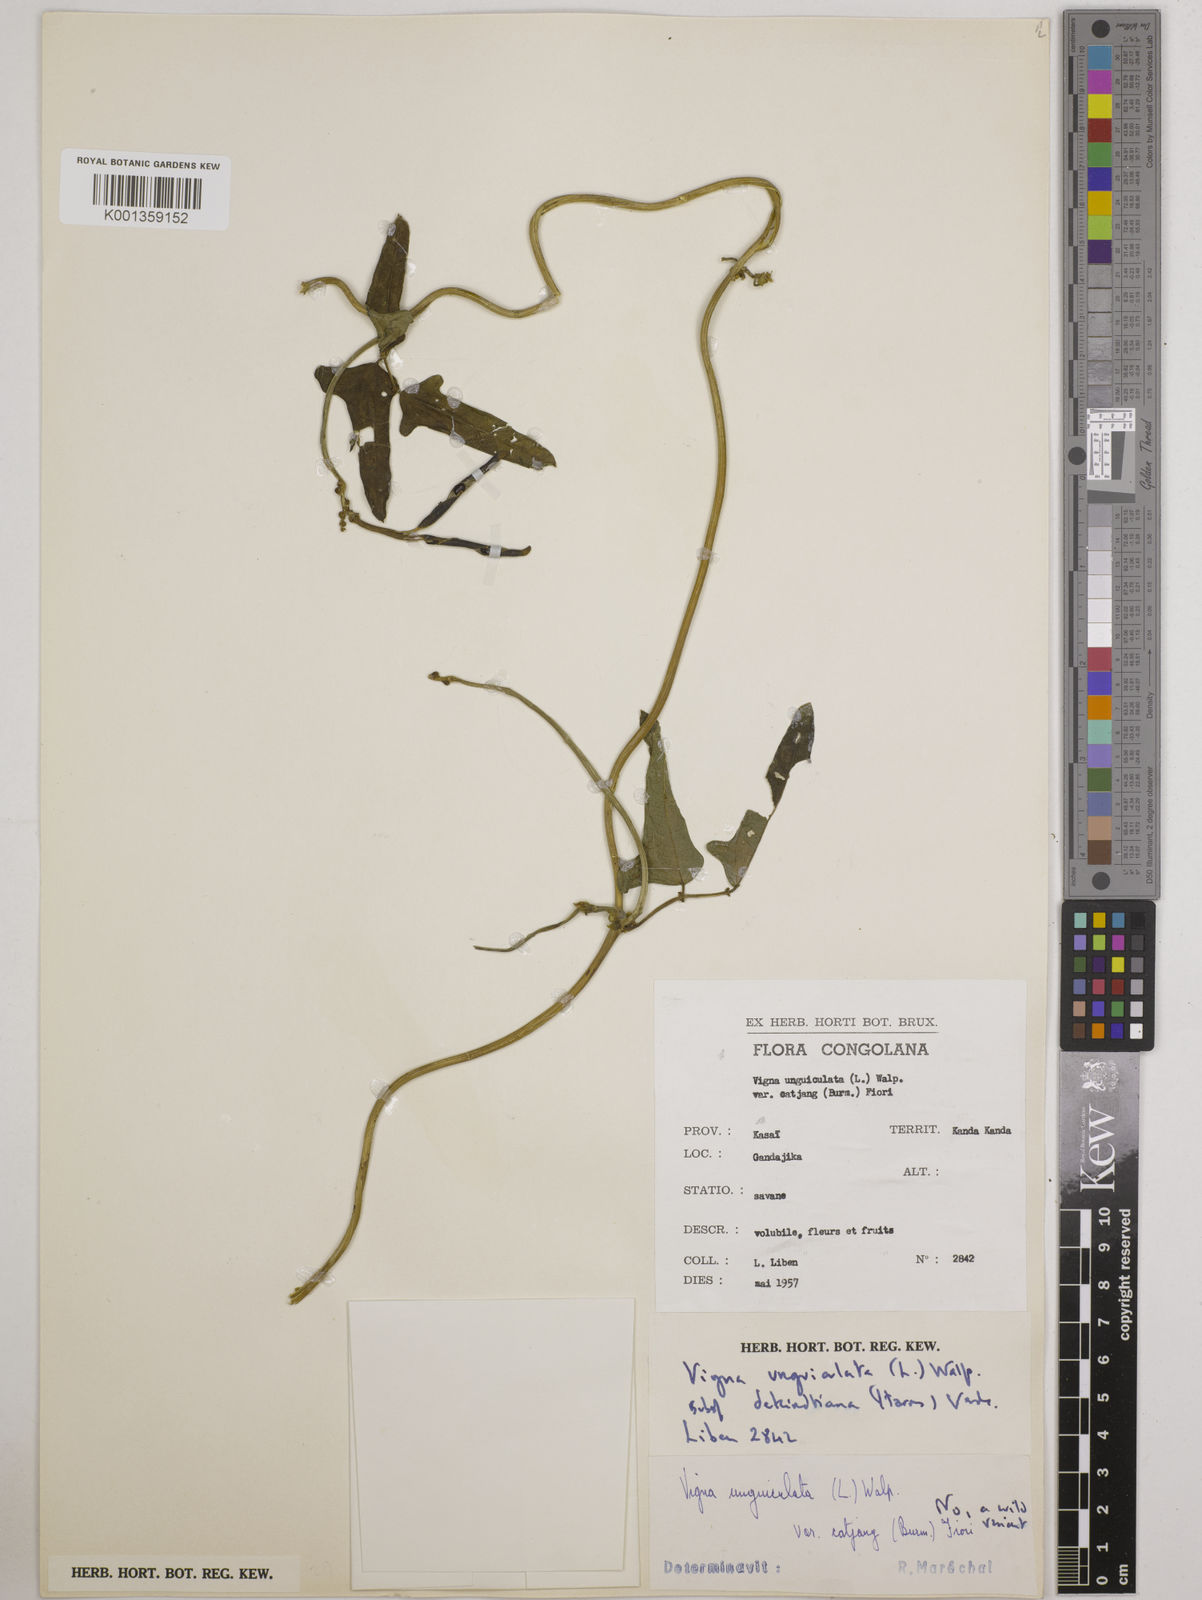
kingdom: Plantae
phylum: Tracheophyta
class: Magnoliopsida
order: Fabales
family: Fabaceae
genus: Vigna
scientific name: Vigna
